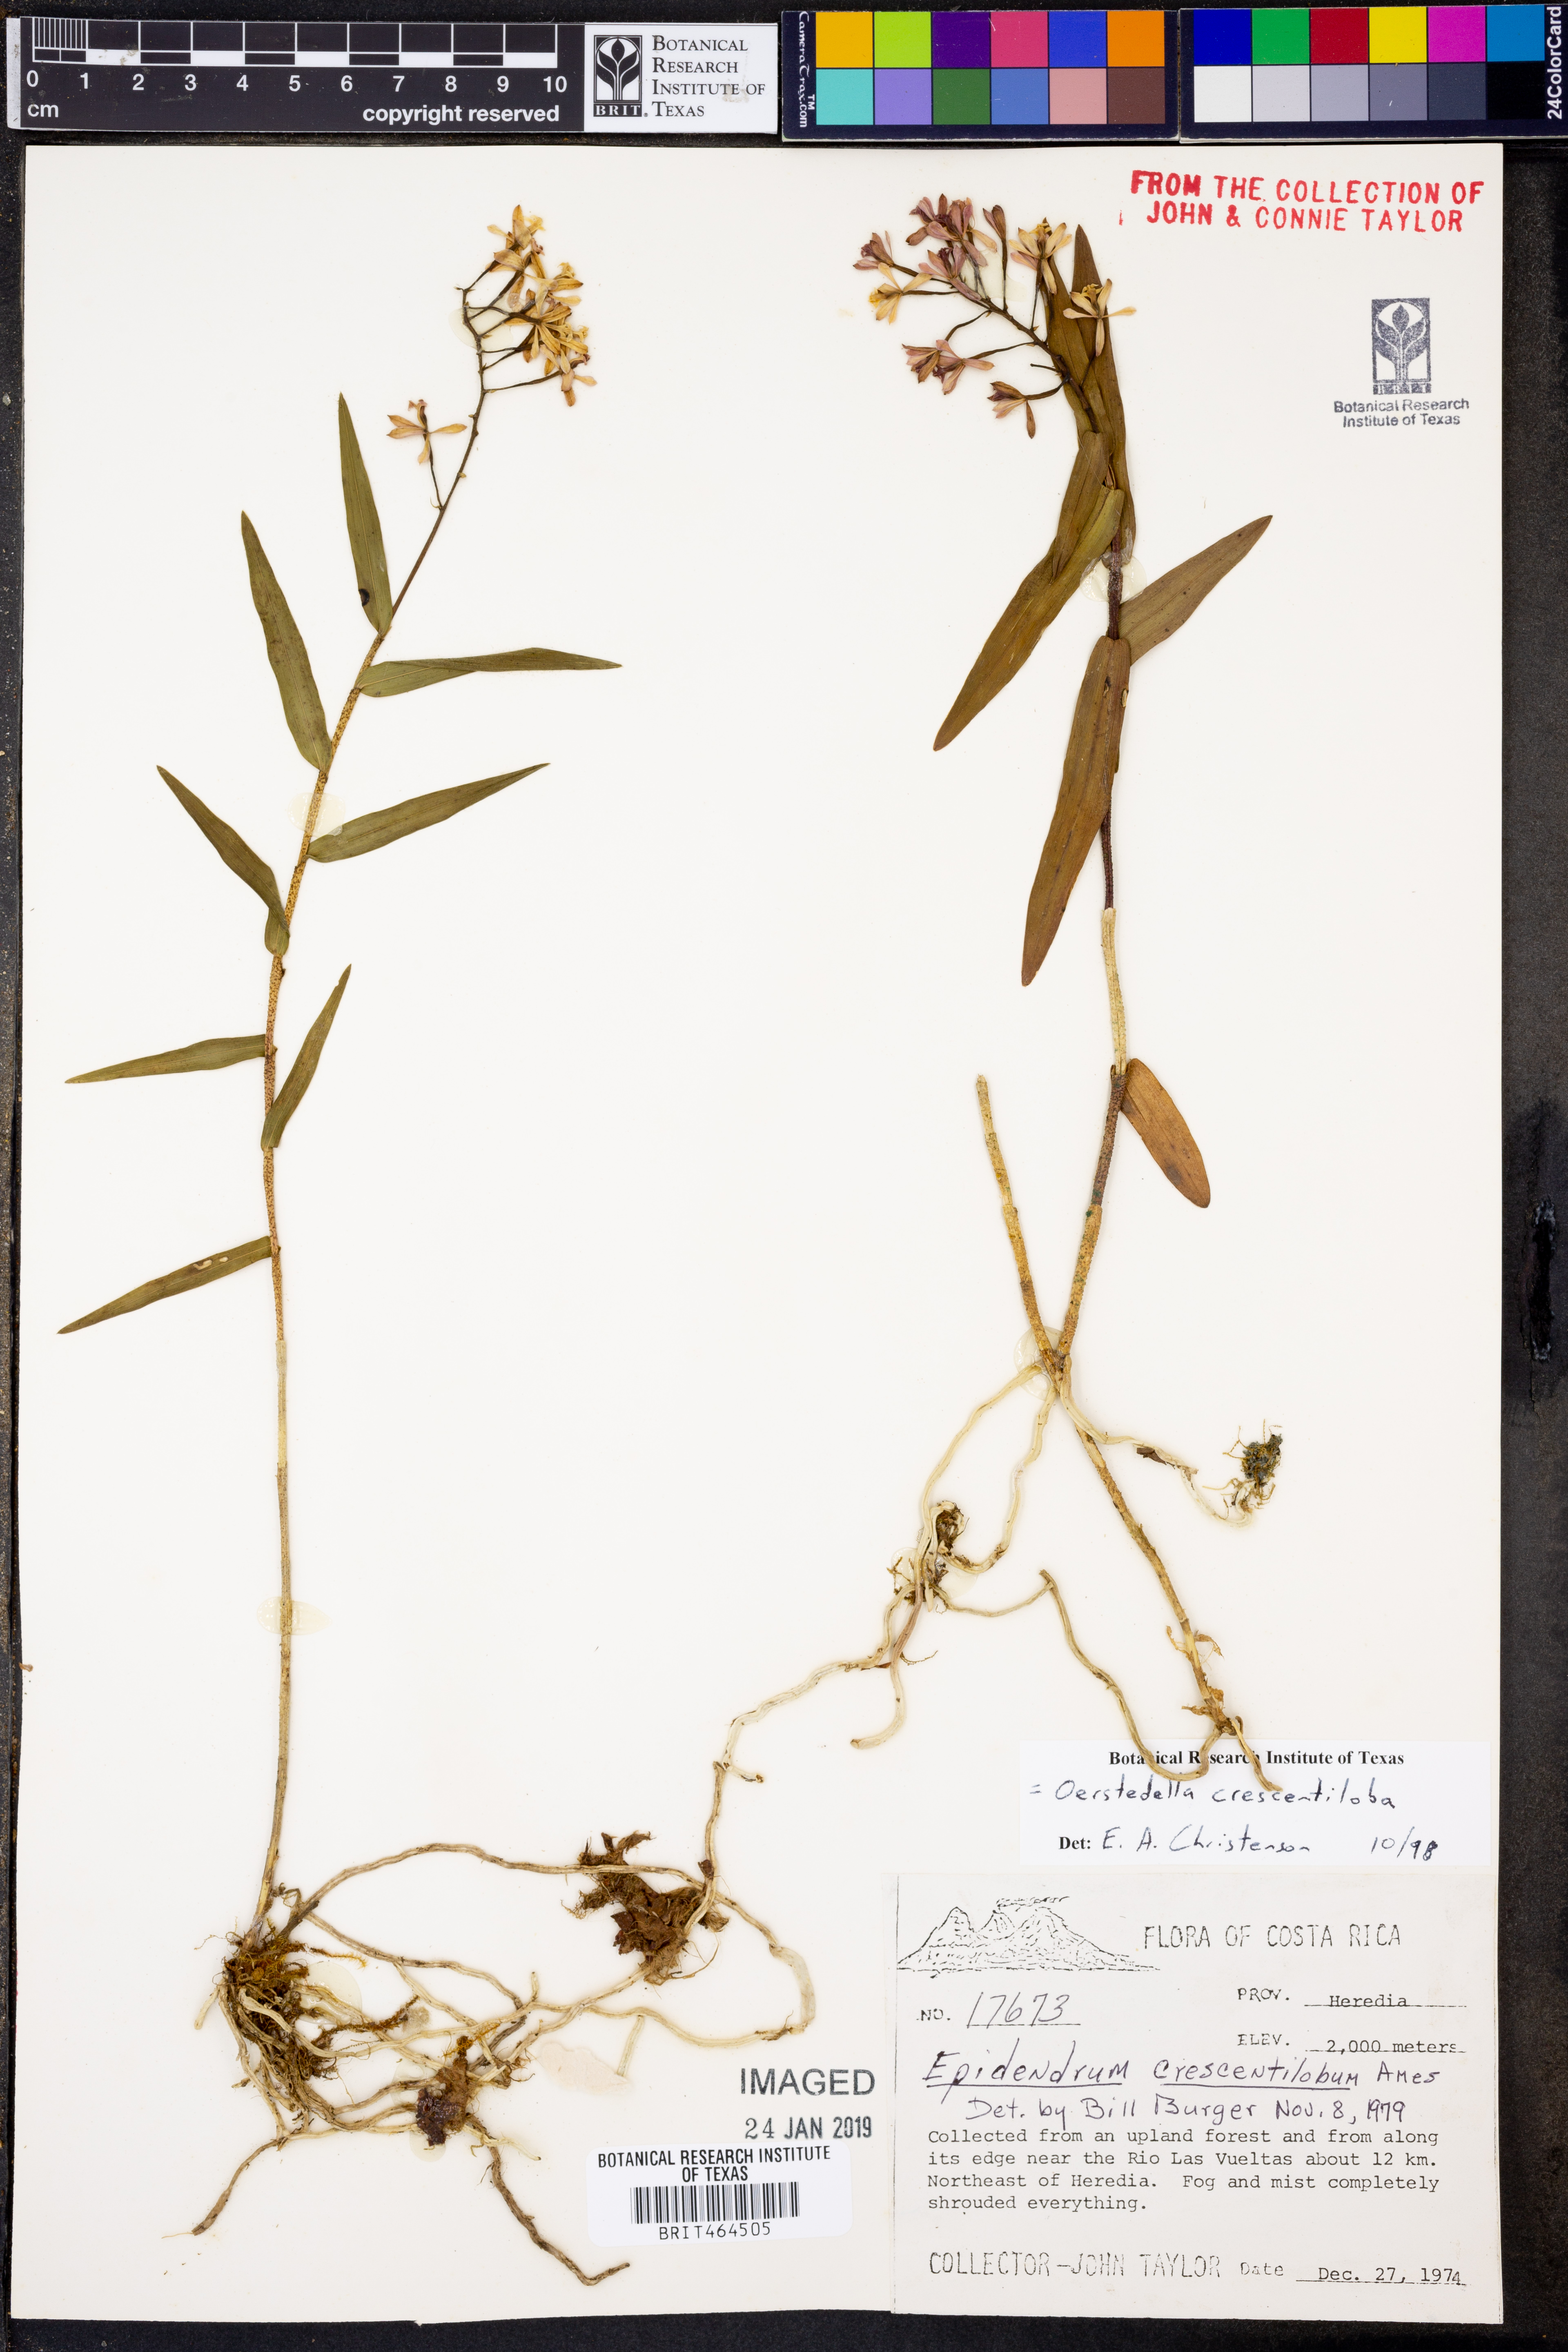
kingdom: Plantae
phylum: Tracheophyta
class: Liliopsida
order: Asparagales
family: Orchidaceae
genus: Epidendrum
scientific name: Epidendrum crescentilobum
